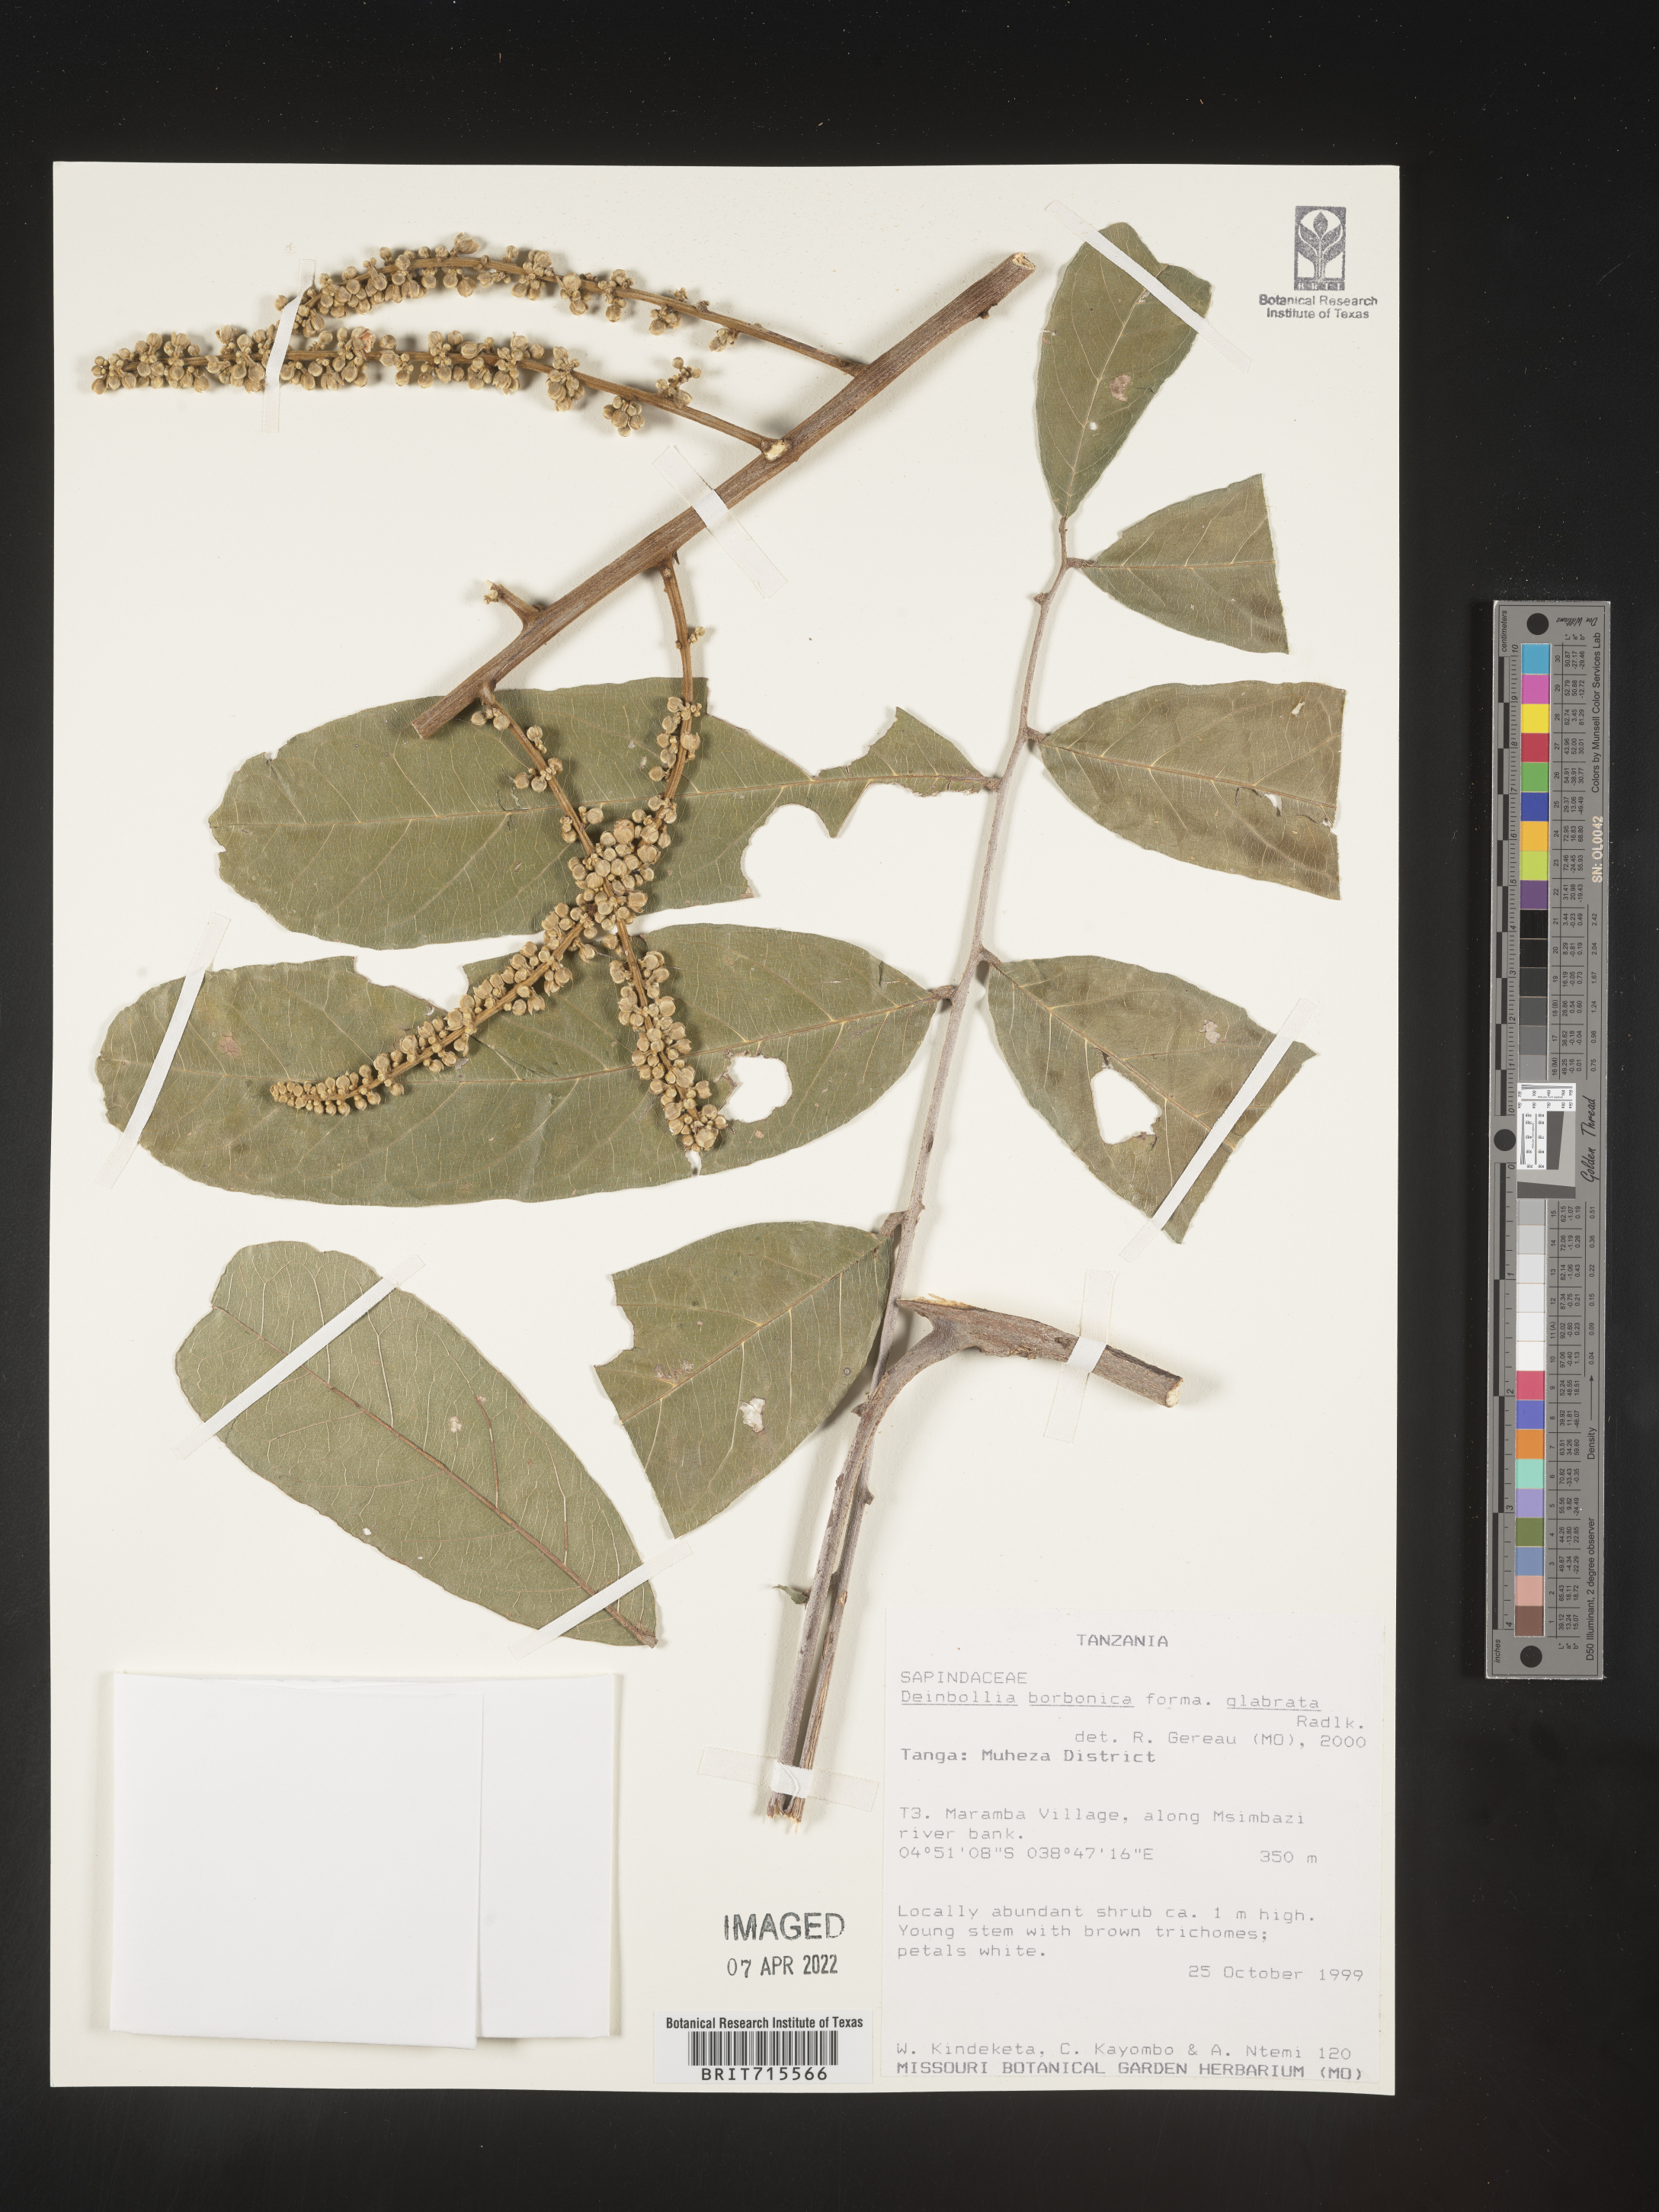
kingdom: Plantae
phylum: Tracheophyta
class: Magnoliopsida
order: Sapindales
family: Sapindaceae
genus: Deinbollia
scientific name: Deinbollia
